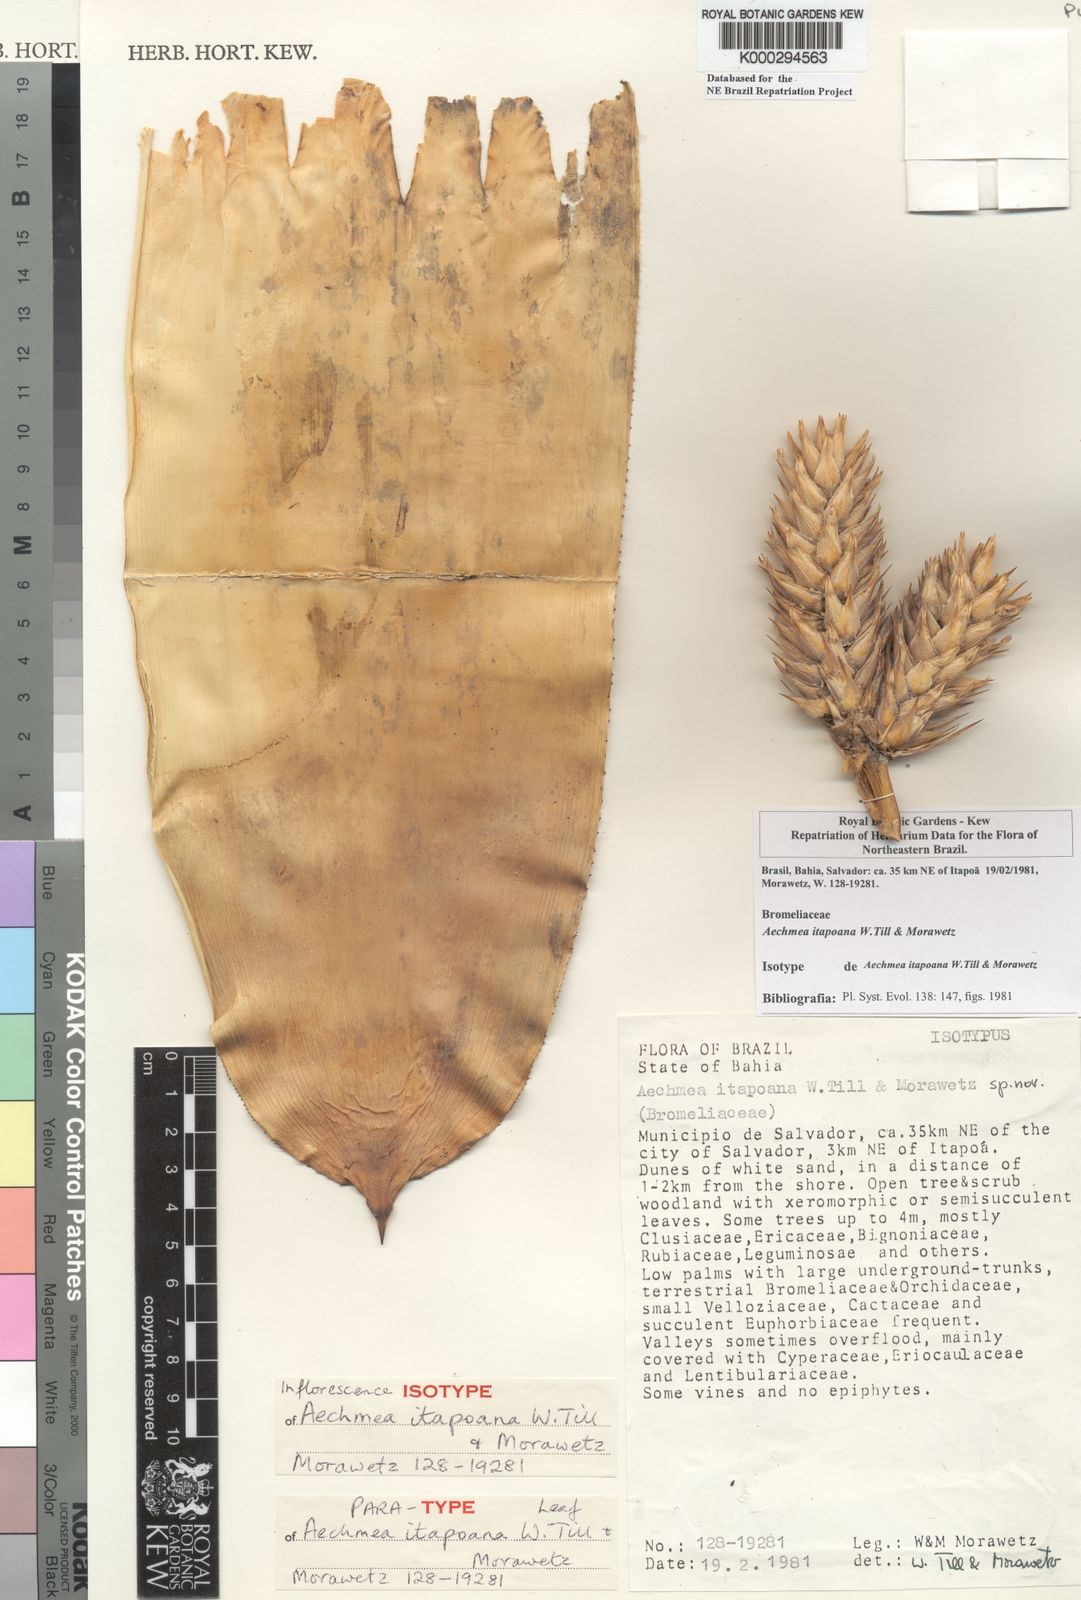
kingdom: Plantae
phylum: Tracheophyta
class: Liliopsida
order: Poales
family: Bromeliaceae
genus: Aechmea
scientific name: Aechmea itapoana
